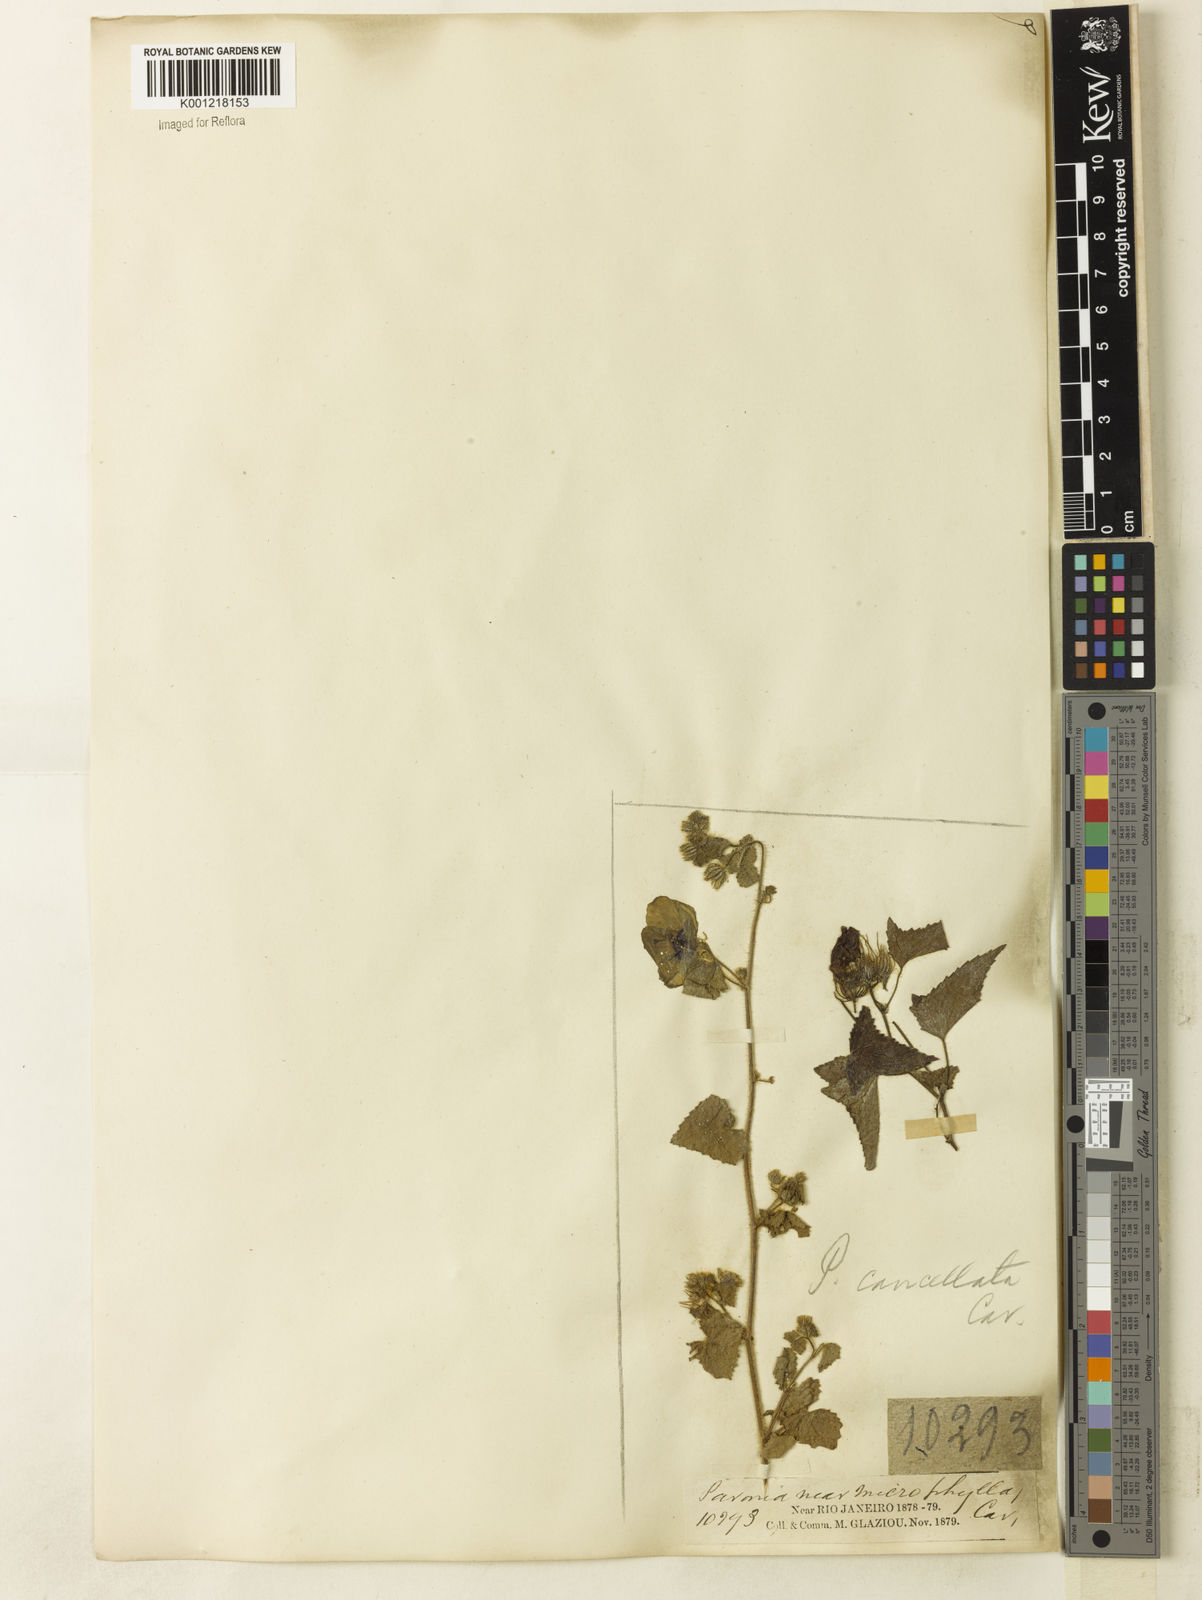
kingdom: Plantae
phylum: Tracheophyta
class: Magnoliopsida
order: Malvales
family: Malvaceae
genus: Pavonia
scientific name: Pavonia cancellata
